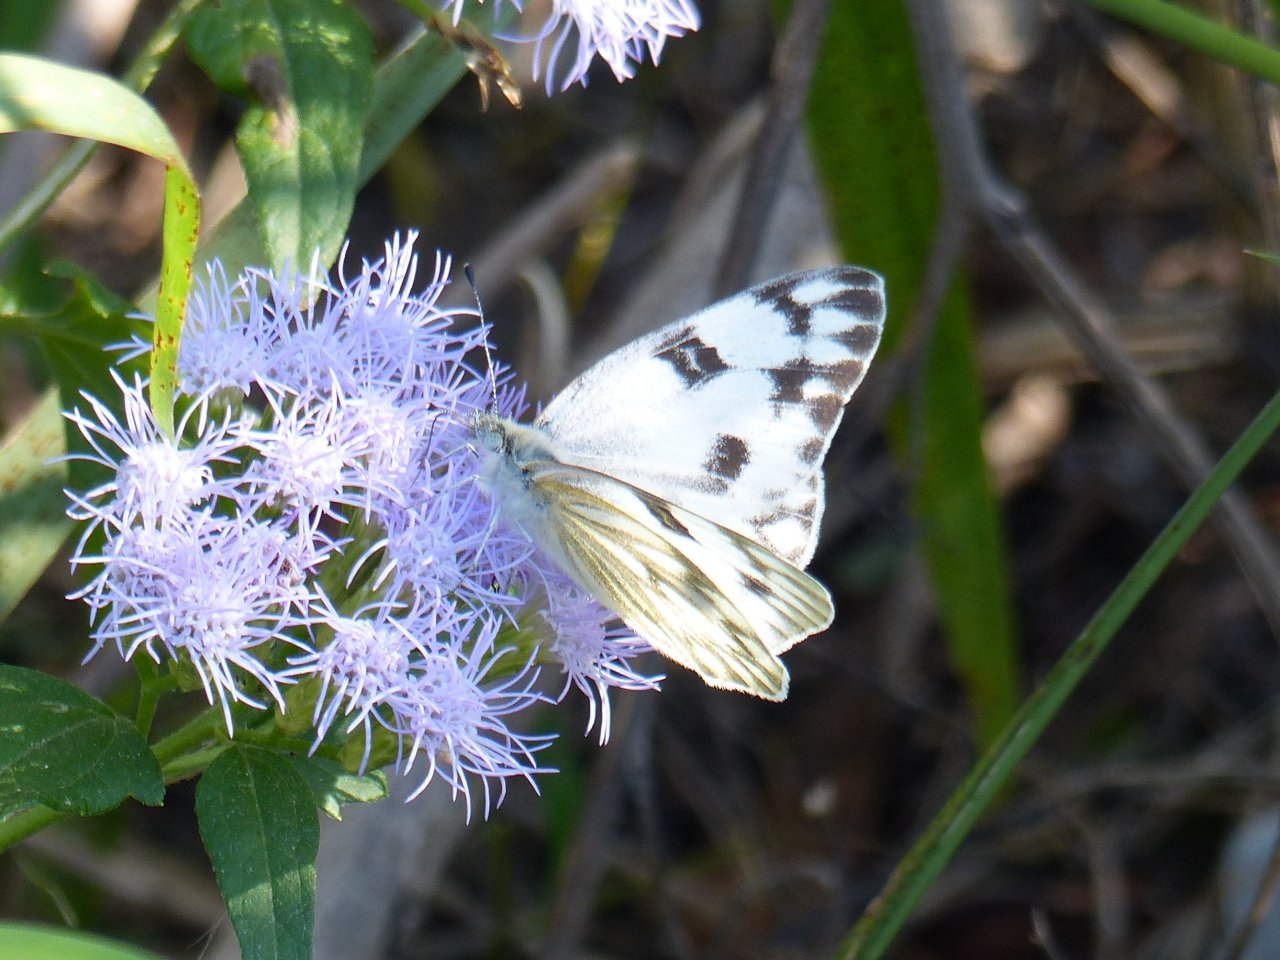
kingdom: Animalia
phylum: Arthropoda
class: Insecta
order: Lepidoptera
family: Pieridae
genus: Pontia
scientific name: Pontia protodice
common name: Checkered White
